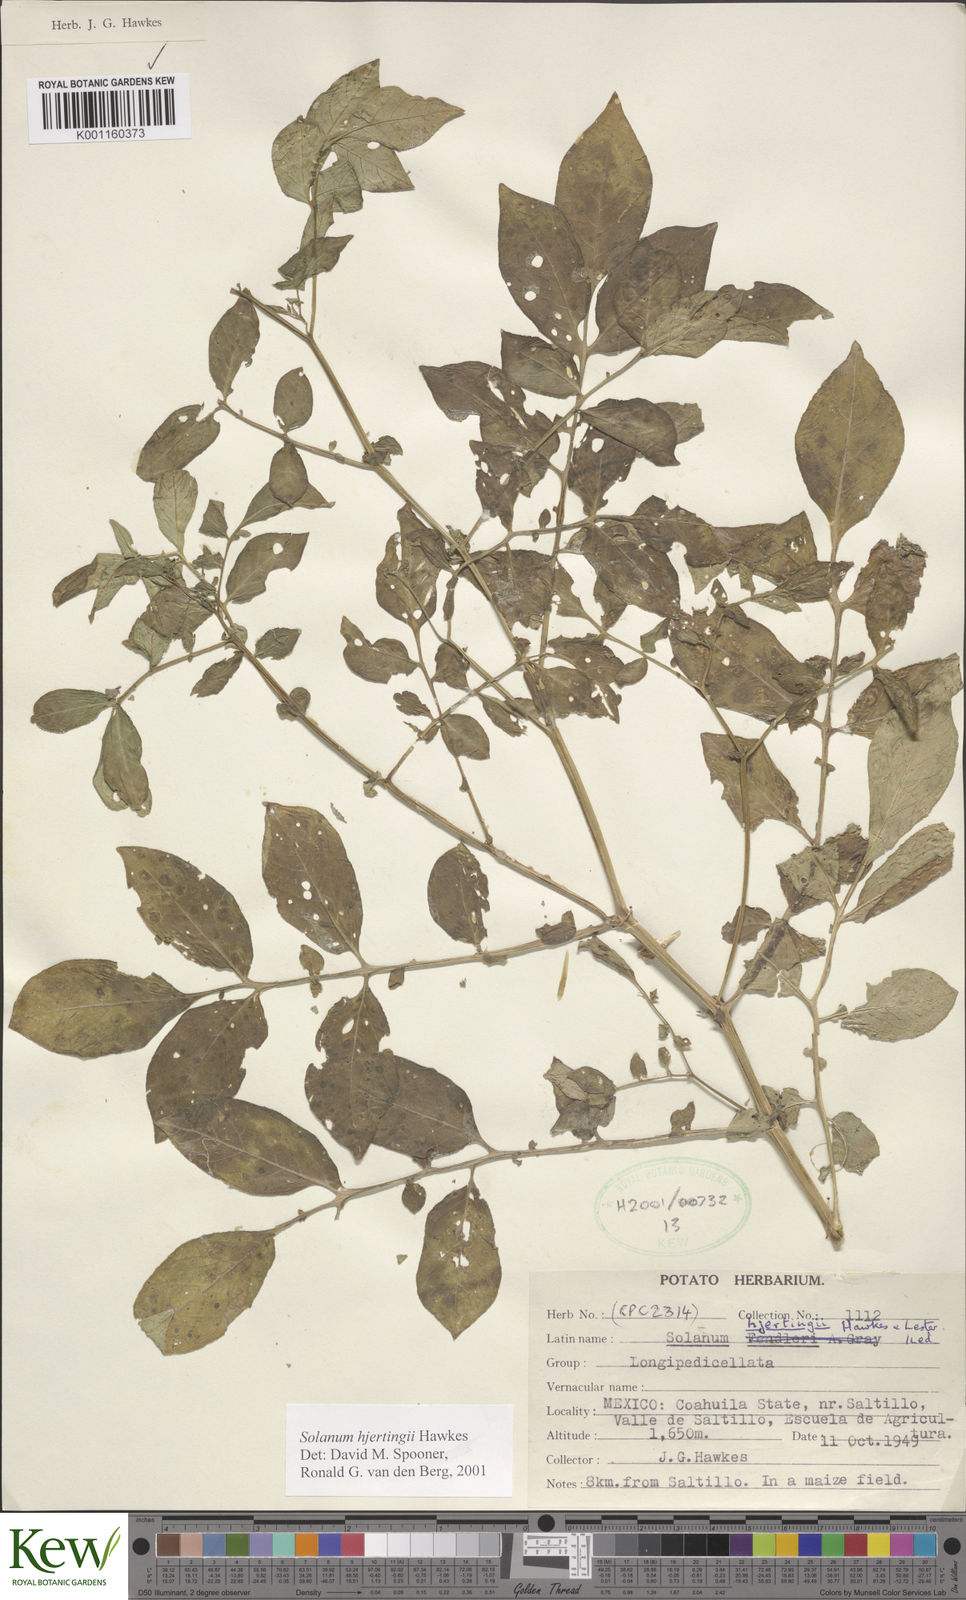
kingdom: Plantae
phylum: Tracheophyta
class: Magnoliopsida
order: Solanales
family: Solanaceae
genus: Solanum
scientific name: Solanum hjertingii
